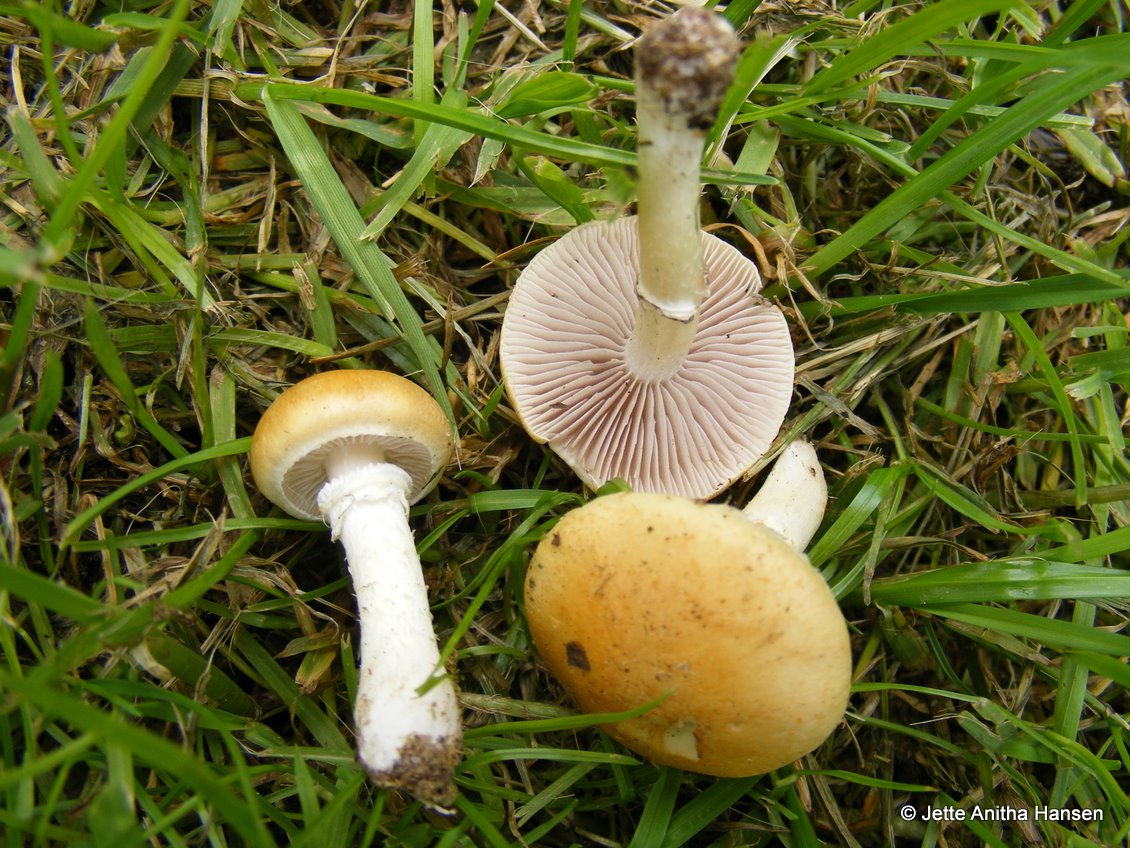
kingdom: Fungi
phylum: Basidiomycota
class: Agaricomycetes
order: Agaricales
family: Hymenogastraceae
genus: Psilocybe
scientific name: Psilocybe coronilla
